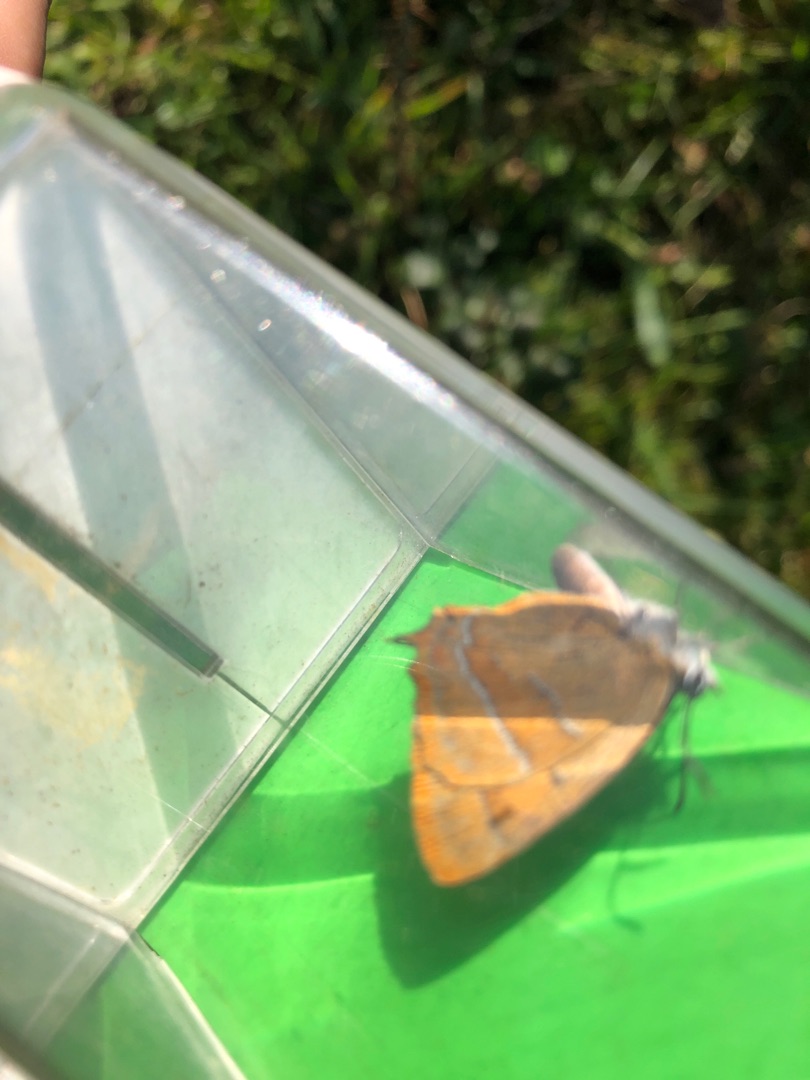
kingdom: Animalia
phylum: Arthropoda
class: Insecta
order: Lepidoptera
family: Lycaenidae
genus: Thecla
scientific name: Thecla betulae
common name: Guldhale
